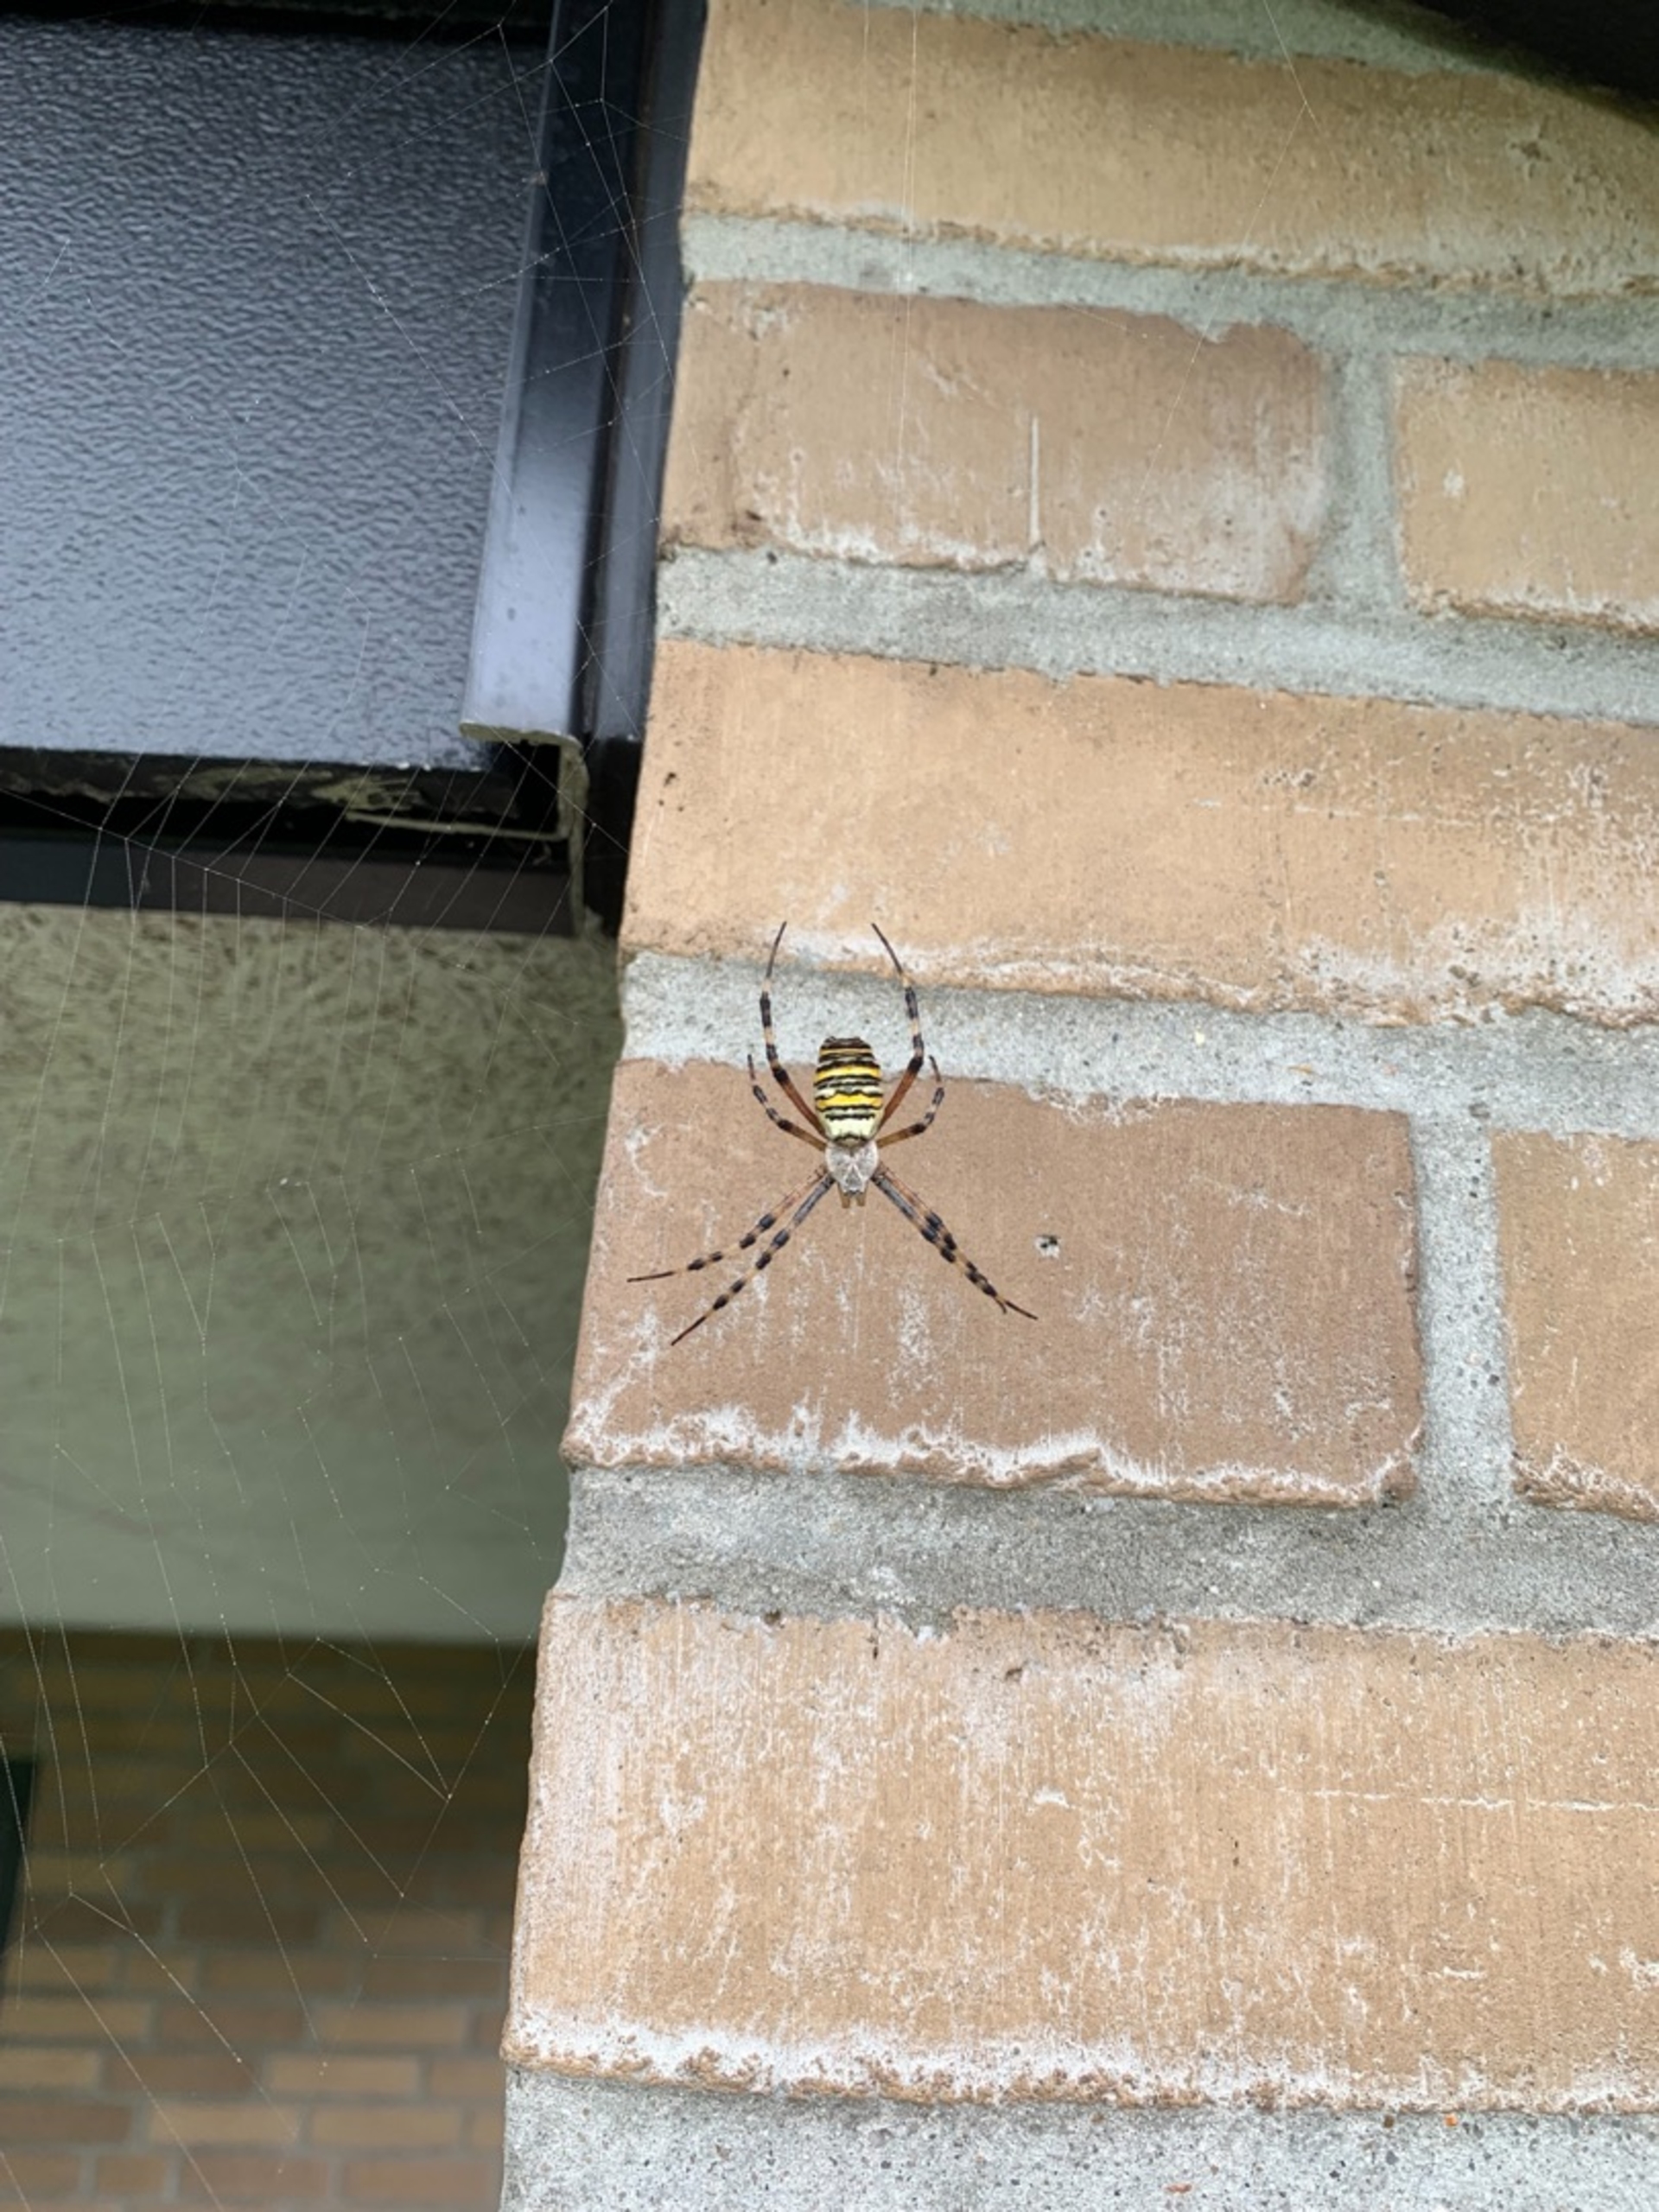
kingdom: Animalia
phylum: Arthropoda
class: Arachnida
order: Araneae
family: Araneidae
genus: Argiope
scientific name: Argiope bruennichi
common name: Hvepseedderkop
